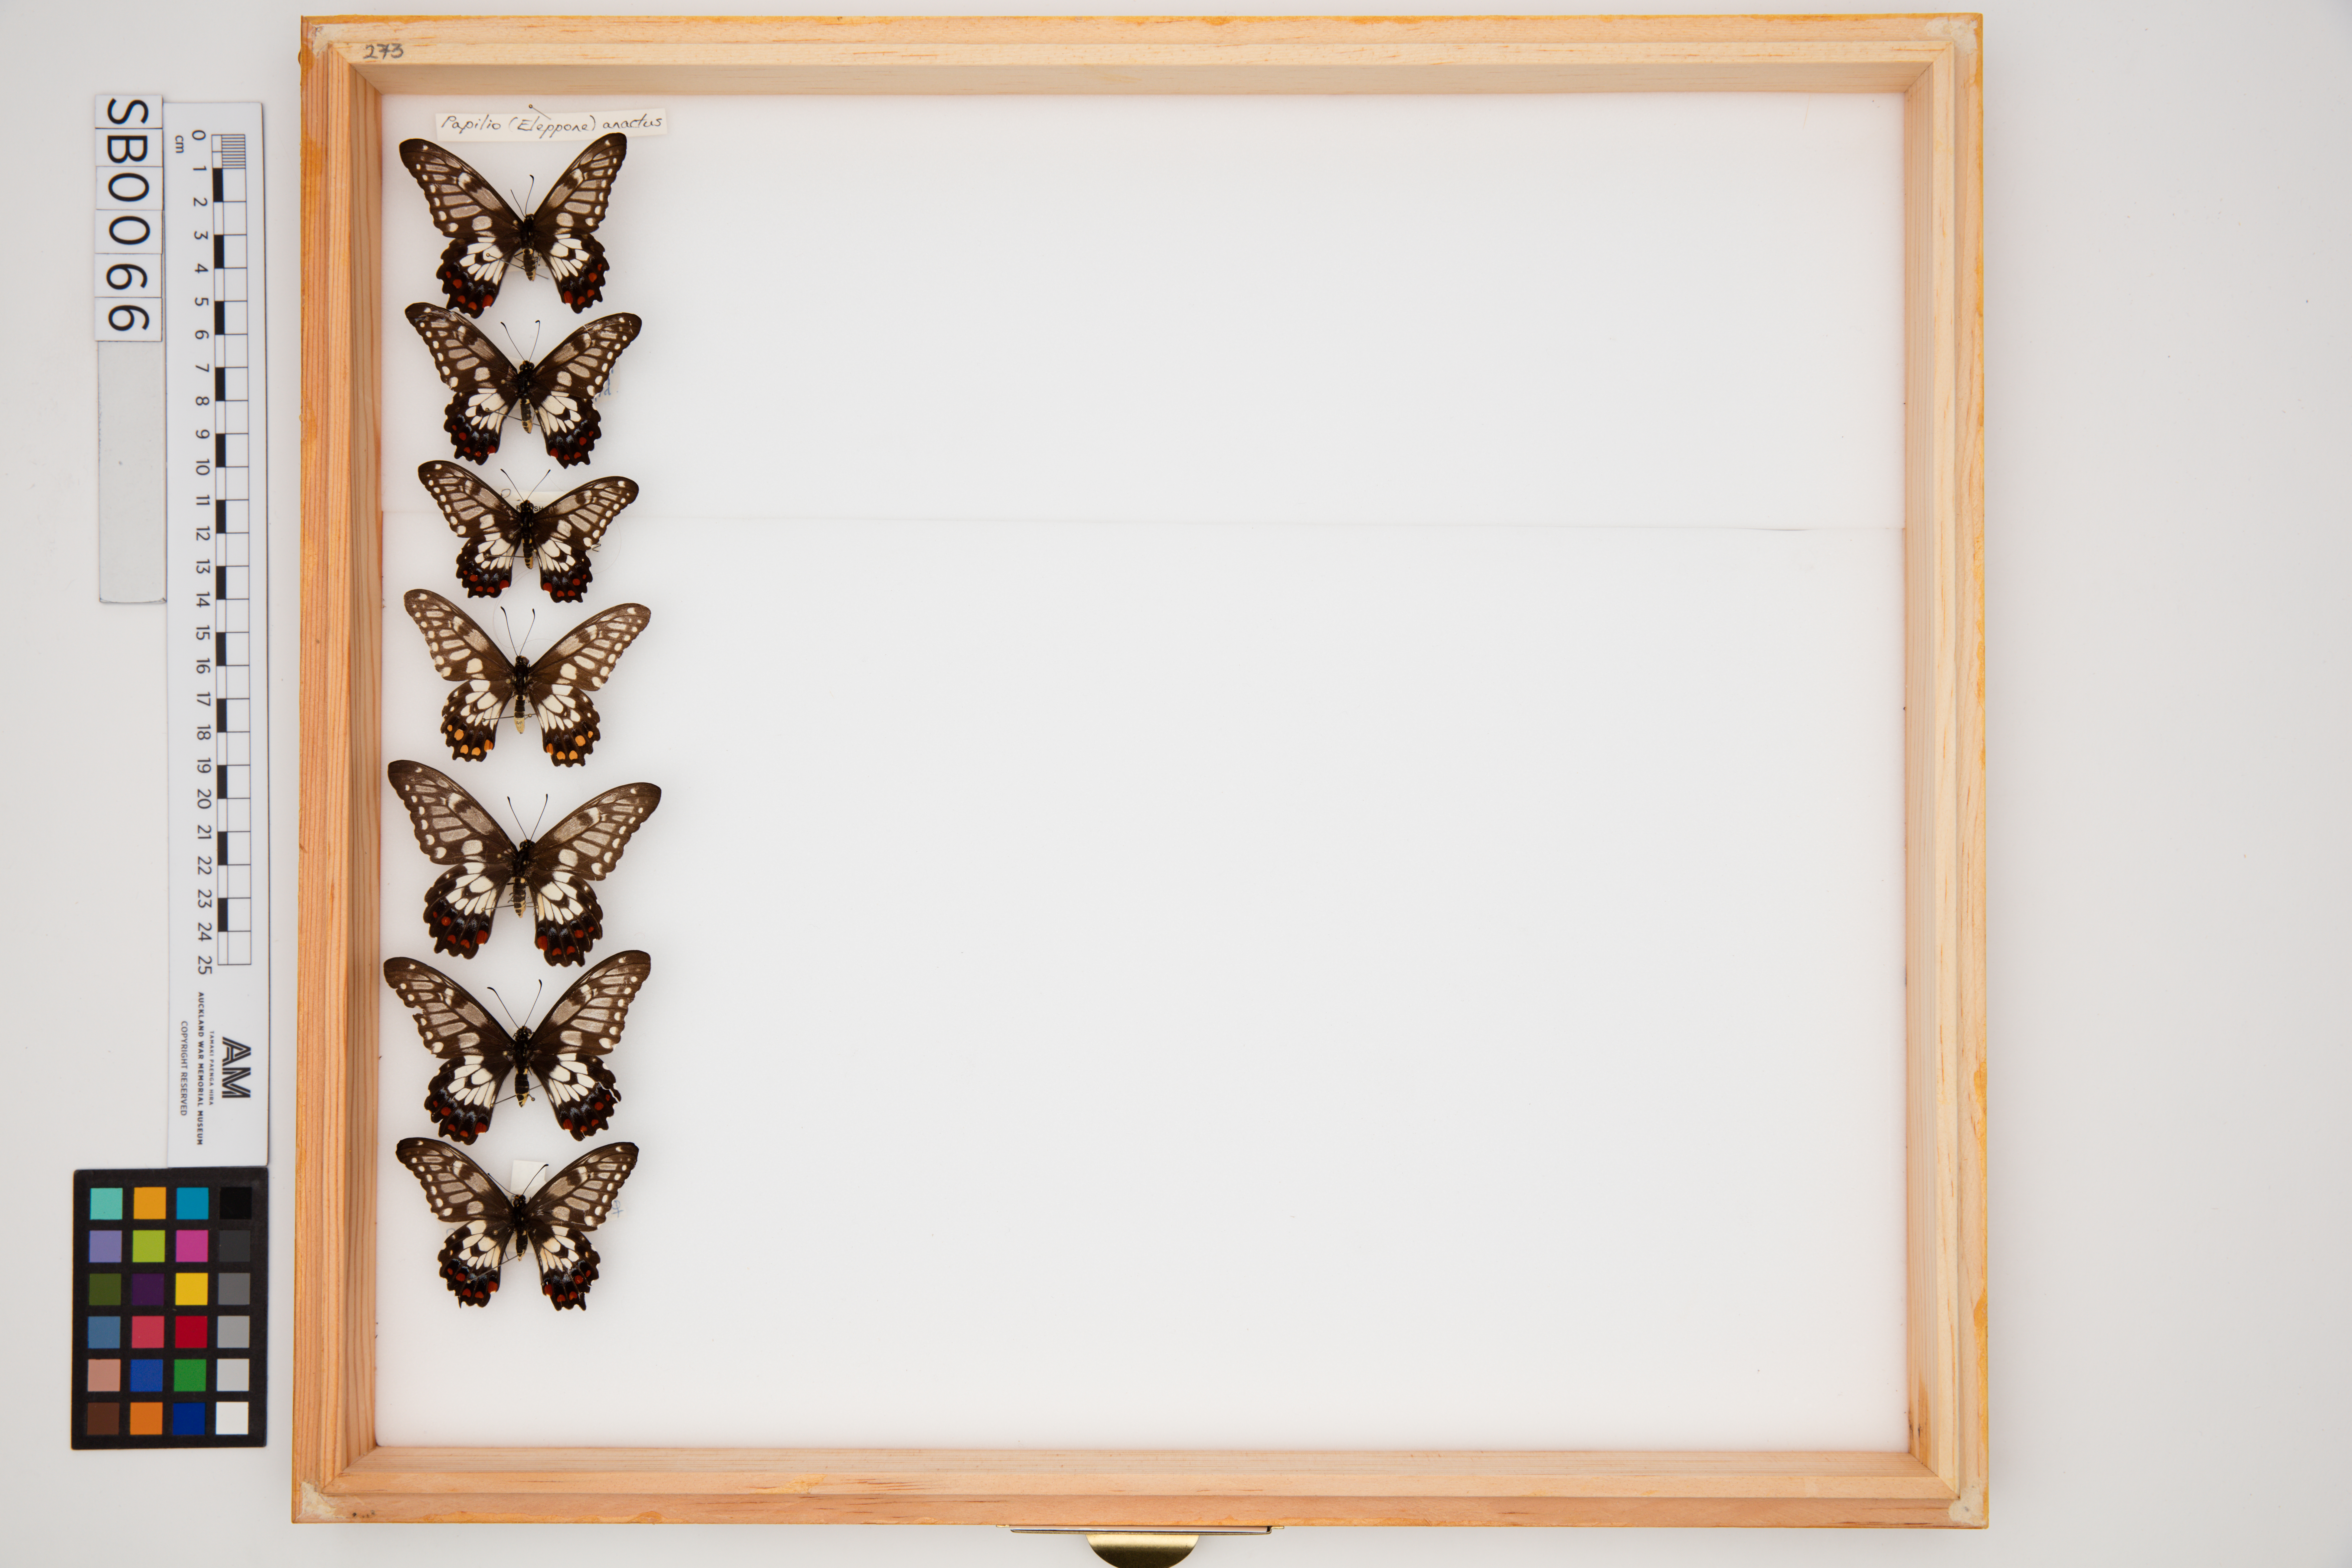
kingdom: Animalia
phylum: Arthropoda
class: Insecta
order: Lepidoptera
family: Papilionidae
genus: Papilio
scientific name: Papilio anactus
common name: Dingy swallowtail
